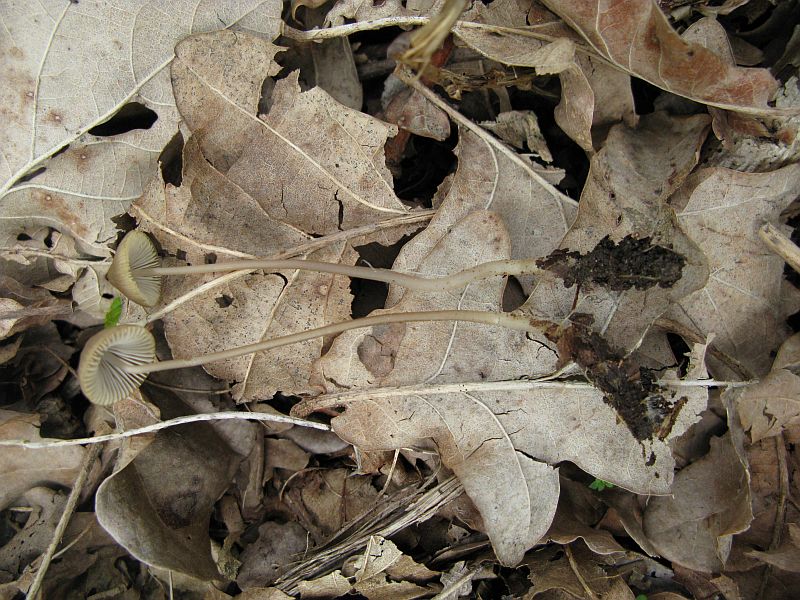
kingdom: Fungi
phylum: Basidiomycota
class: Agaricomycetes
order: Agaricales
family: Mycenaceae
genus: Mycena
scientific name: Mycena vitilis
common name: blankstokket huesvamp
